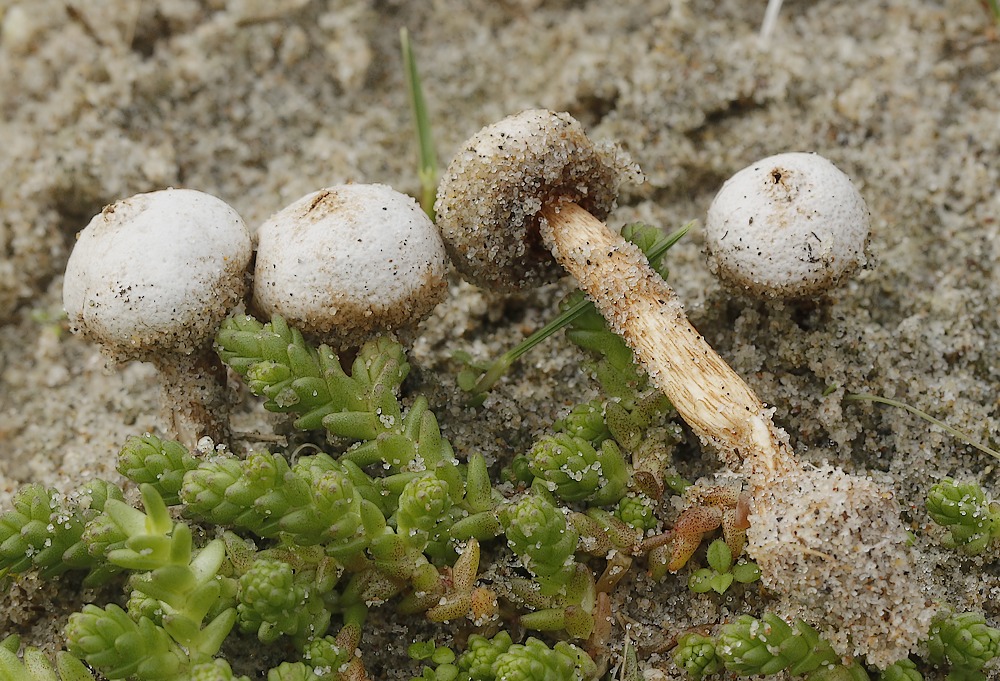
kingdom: Fungi
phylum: Basidiomycota
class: Agaricomycetes
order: Agaricales
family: Agaricaceae
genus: Tulostoma
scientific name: Tulostoma fimbriatum
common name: frynset stilkbovist
